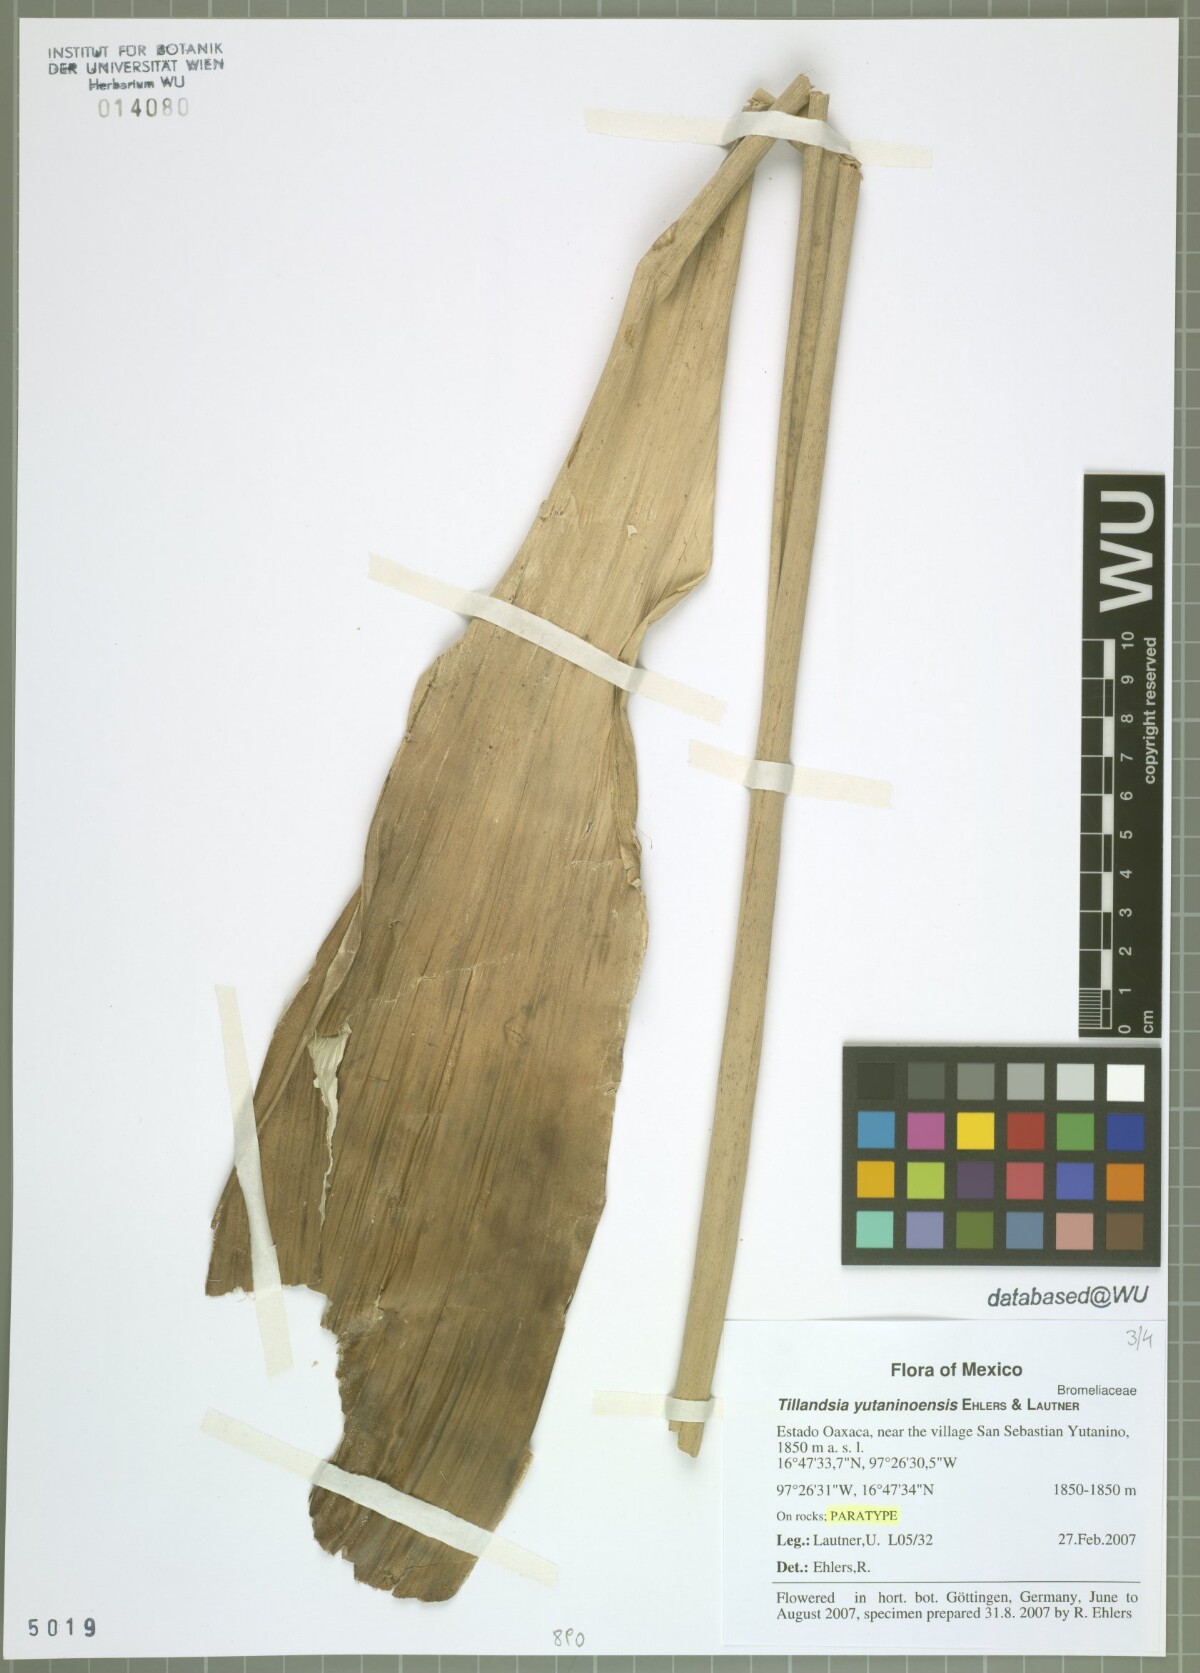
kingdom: Plantae
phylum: Tracheophyta
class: Liliopsida
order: Poales
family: Bromeliaceae
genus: Tillandsia
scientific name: Tillandsia yutaninoensis
